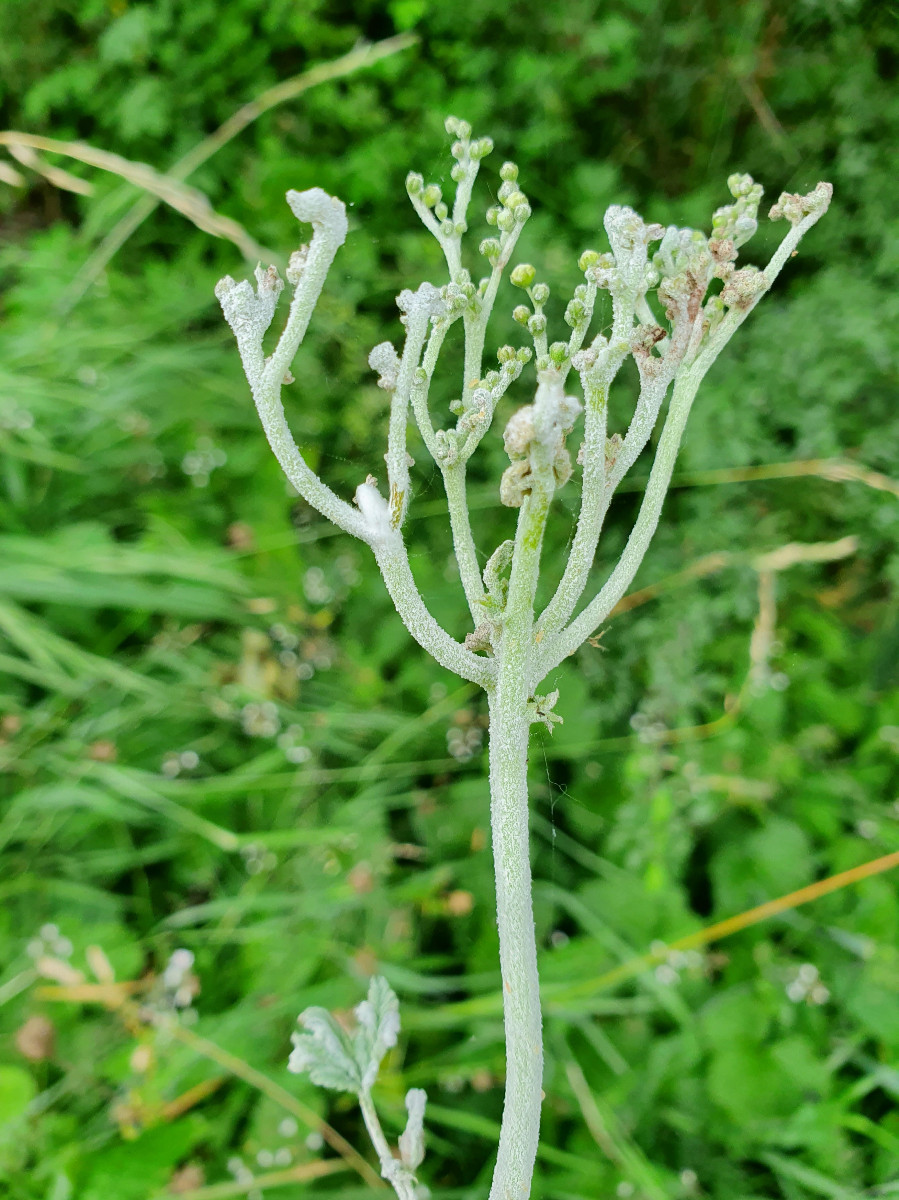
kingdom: Fungi
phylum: Ascomycota
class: Leotiomycetes
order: Helotiales
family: Erysiphaceae
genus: Podosphaera
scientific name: Podosphaera filipendulae
